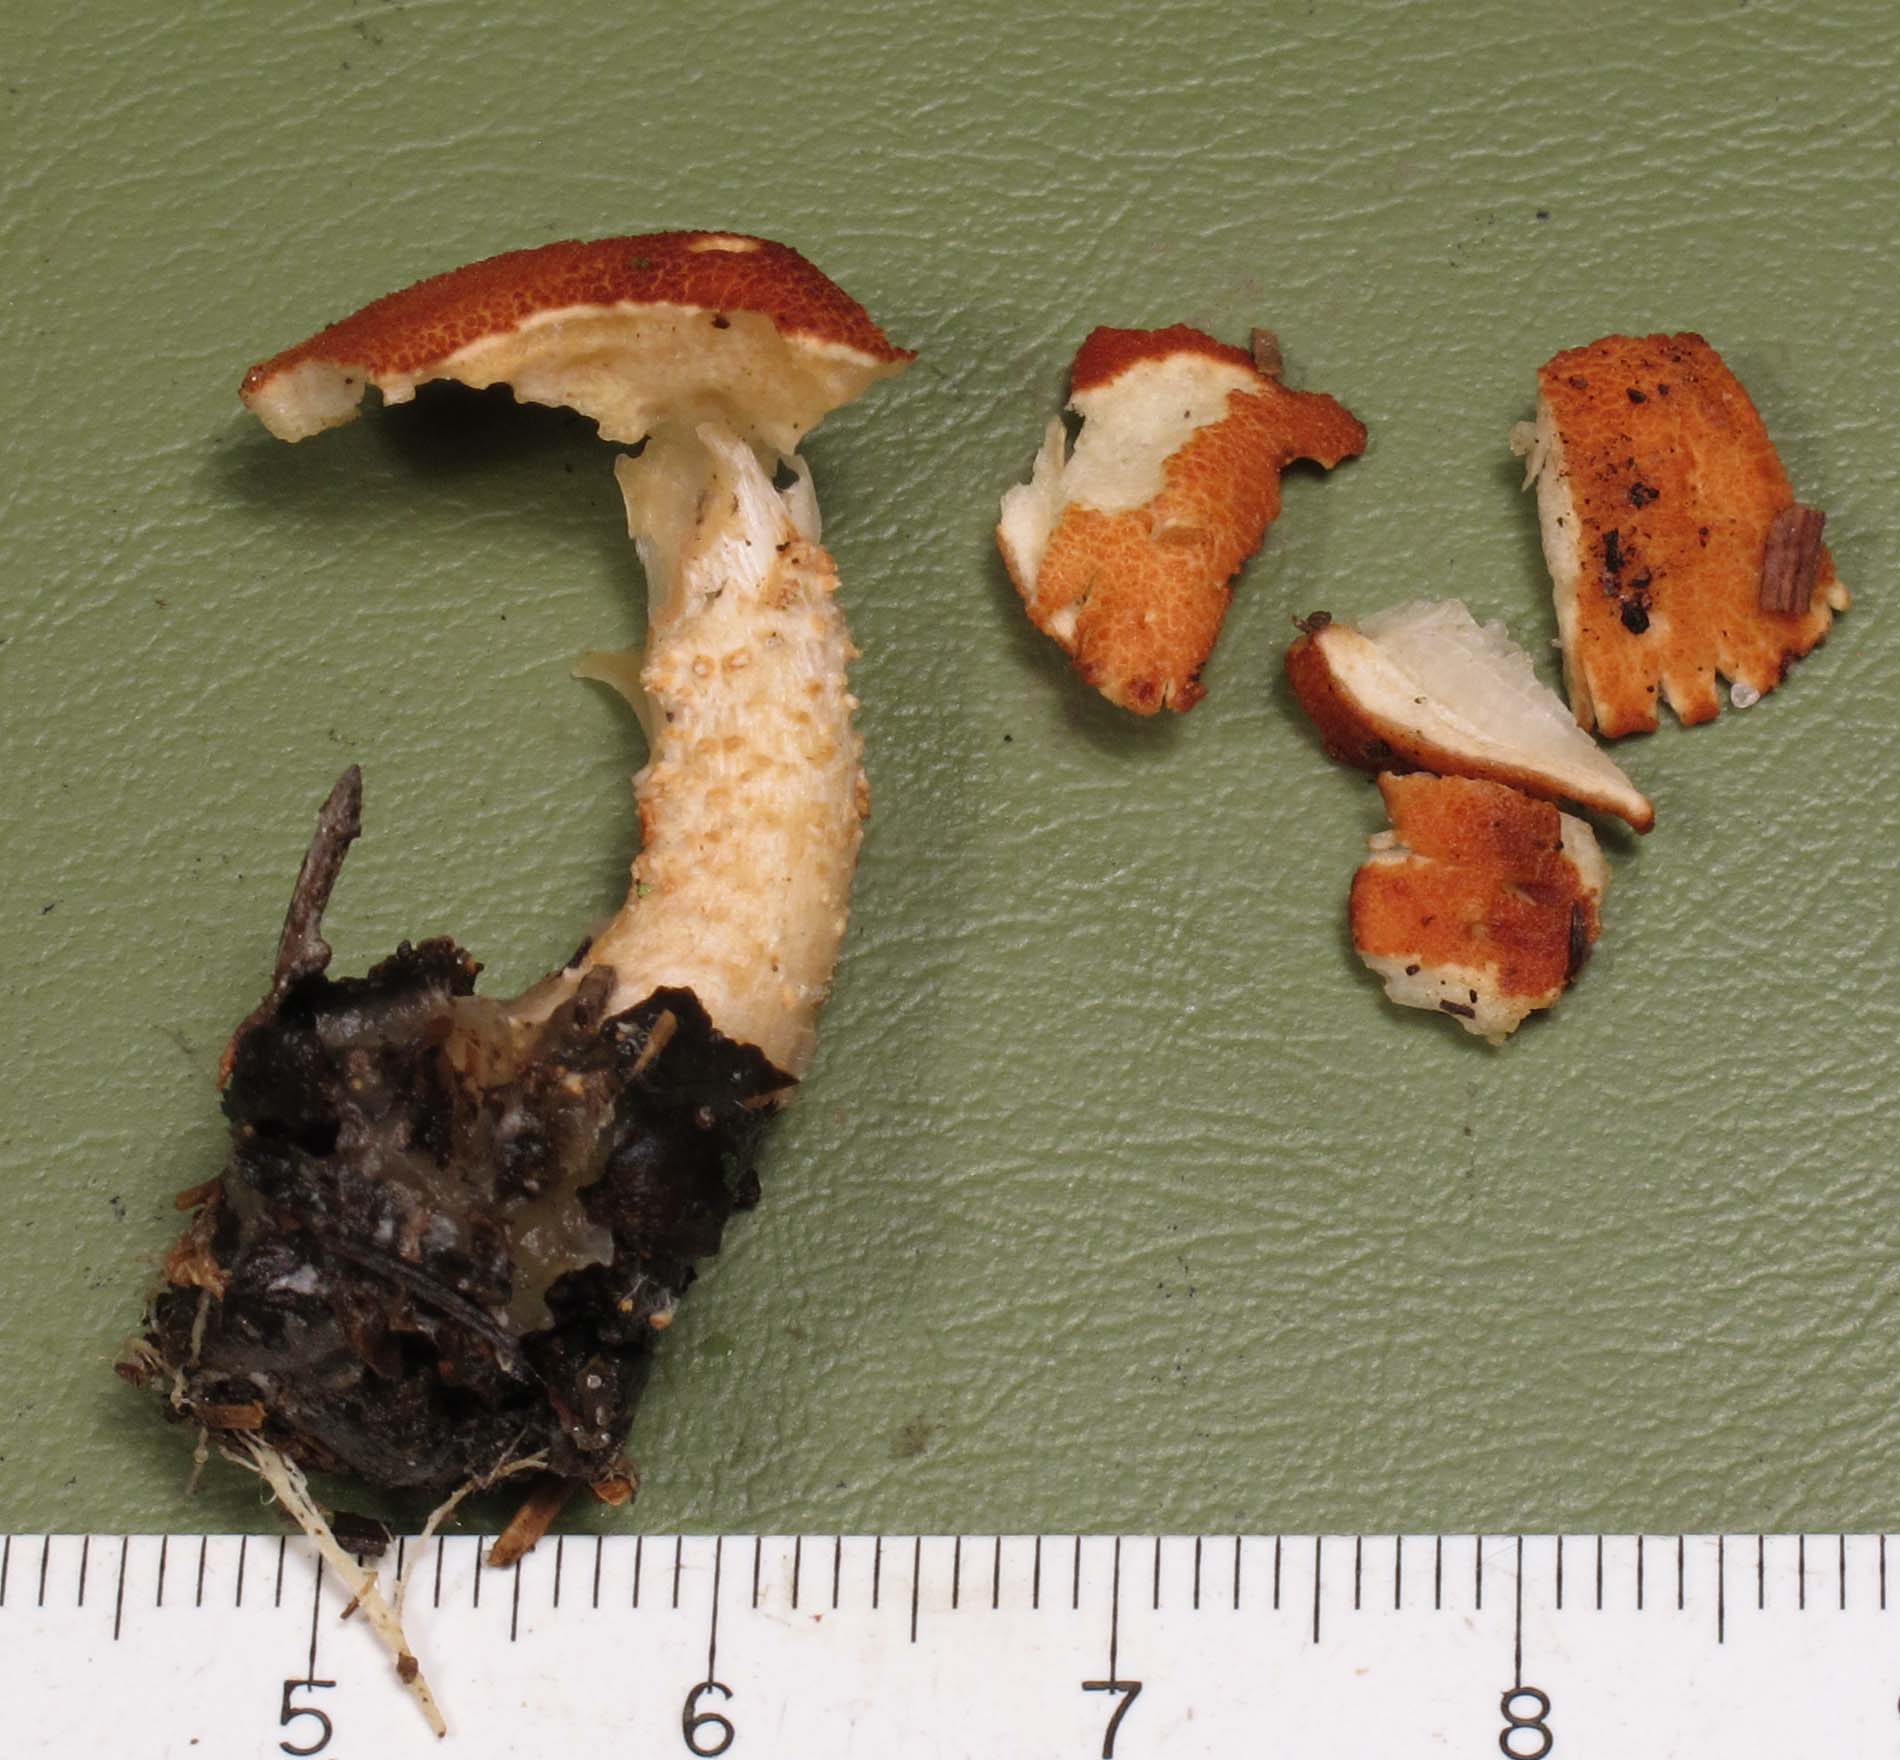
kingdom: Fungi
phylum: Basidiomycota
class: Agaricomycetes
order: Agaricales
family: Agaricaceae
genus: Cystodermella
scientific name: Cystodermella cinnabarina
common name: cinnober-grynhat
